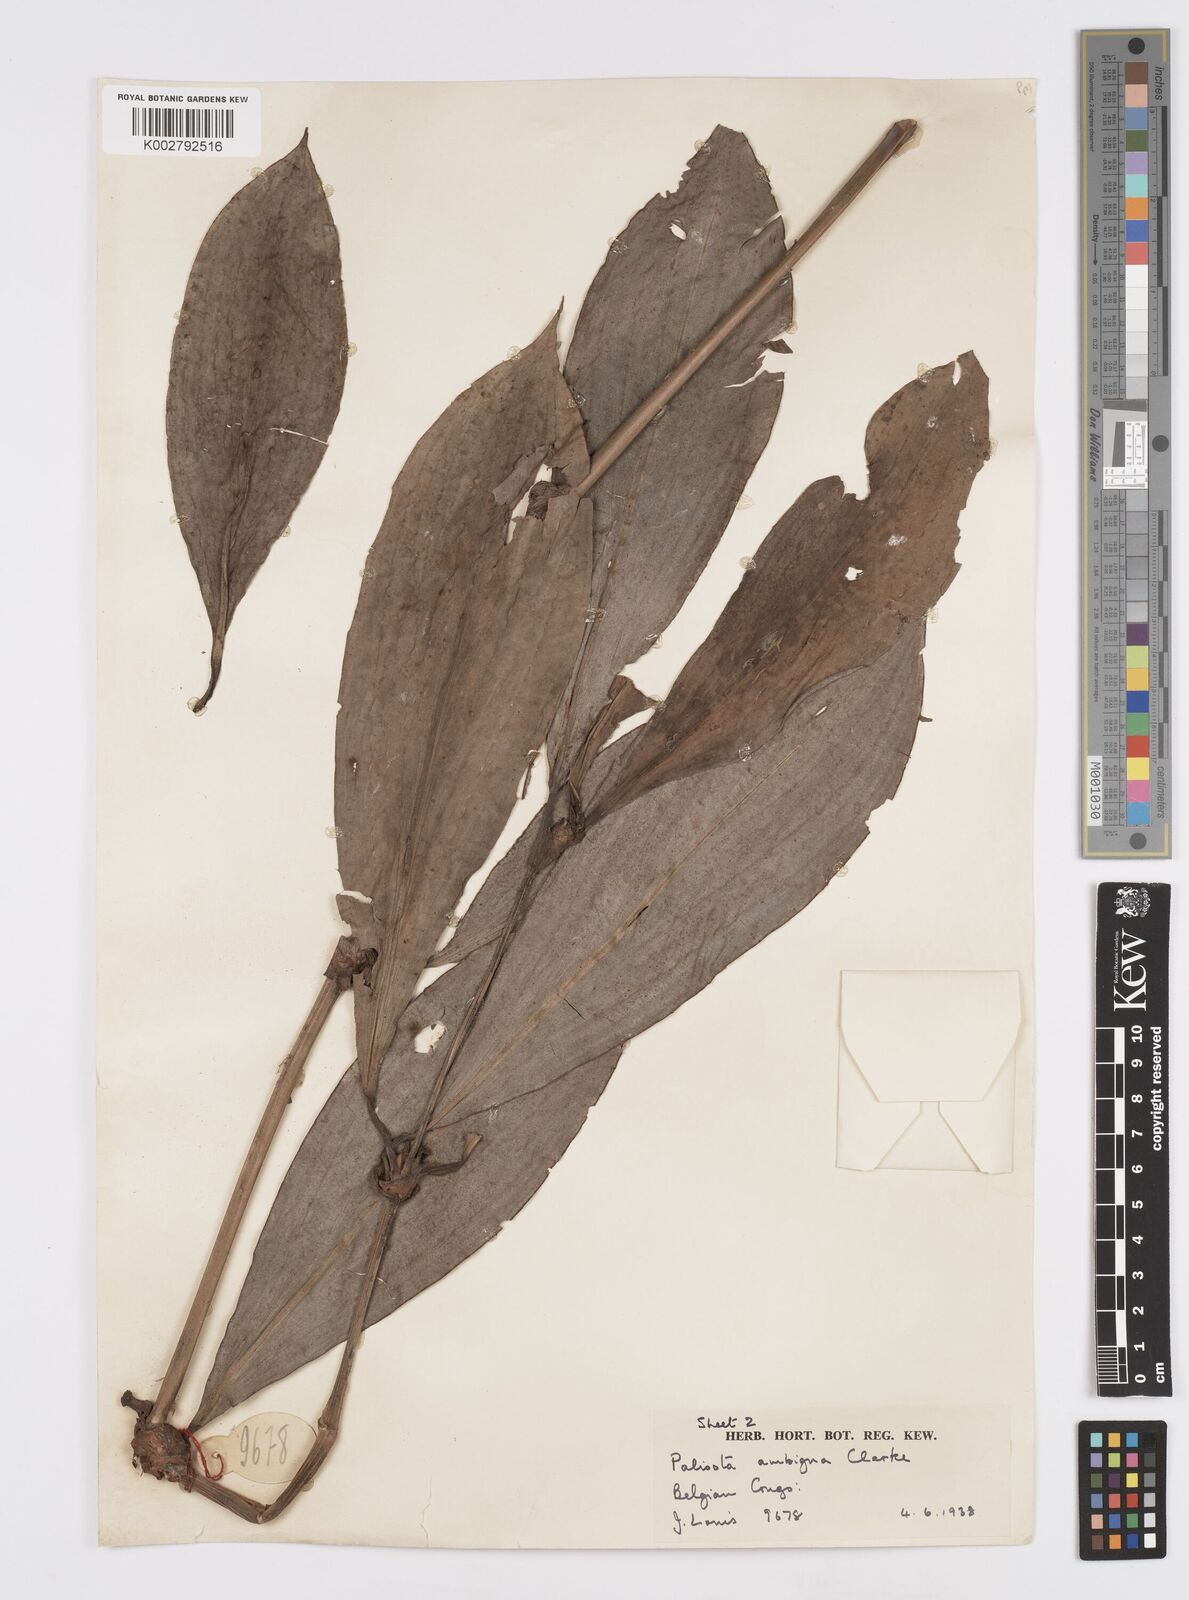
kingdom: Plantae
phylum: Tracheophyta
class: Liliopsida
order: Commelinales
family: Commelinaceae
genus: Palisota
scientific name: Palisota ambigua
